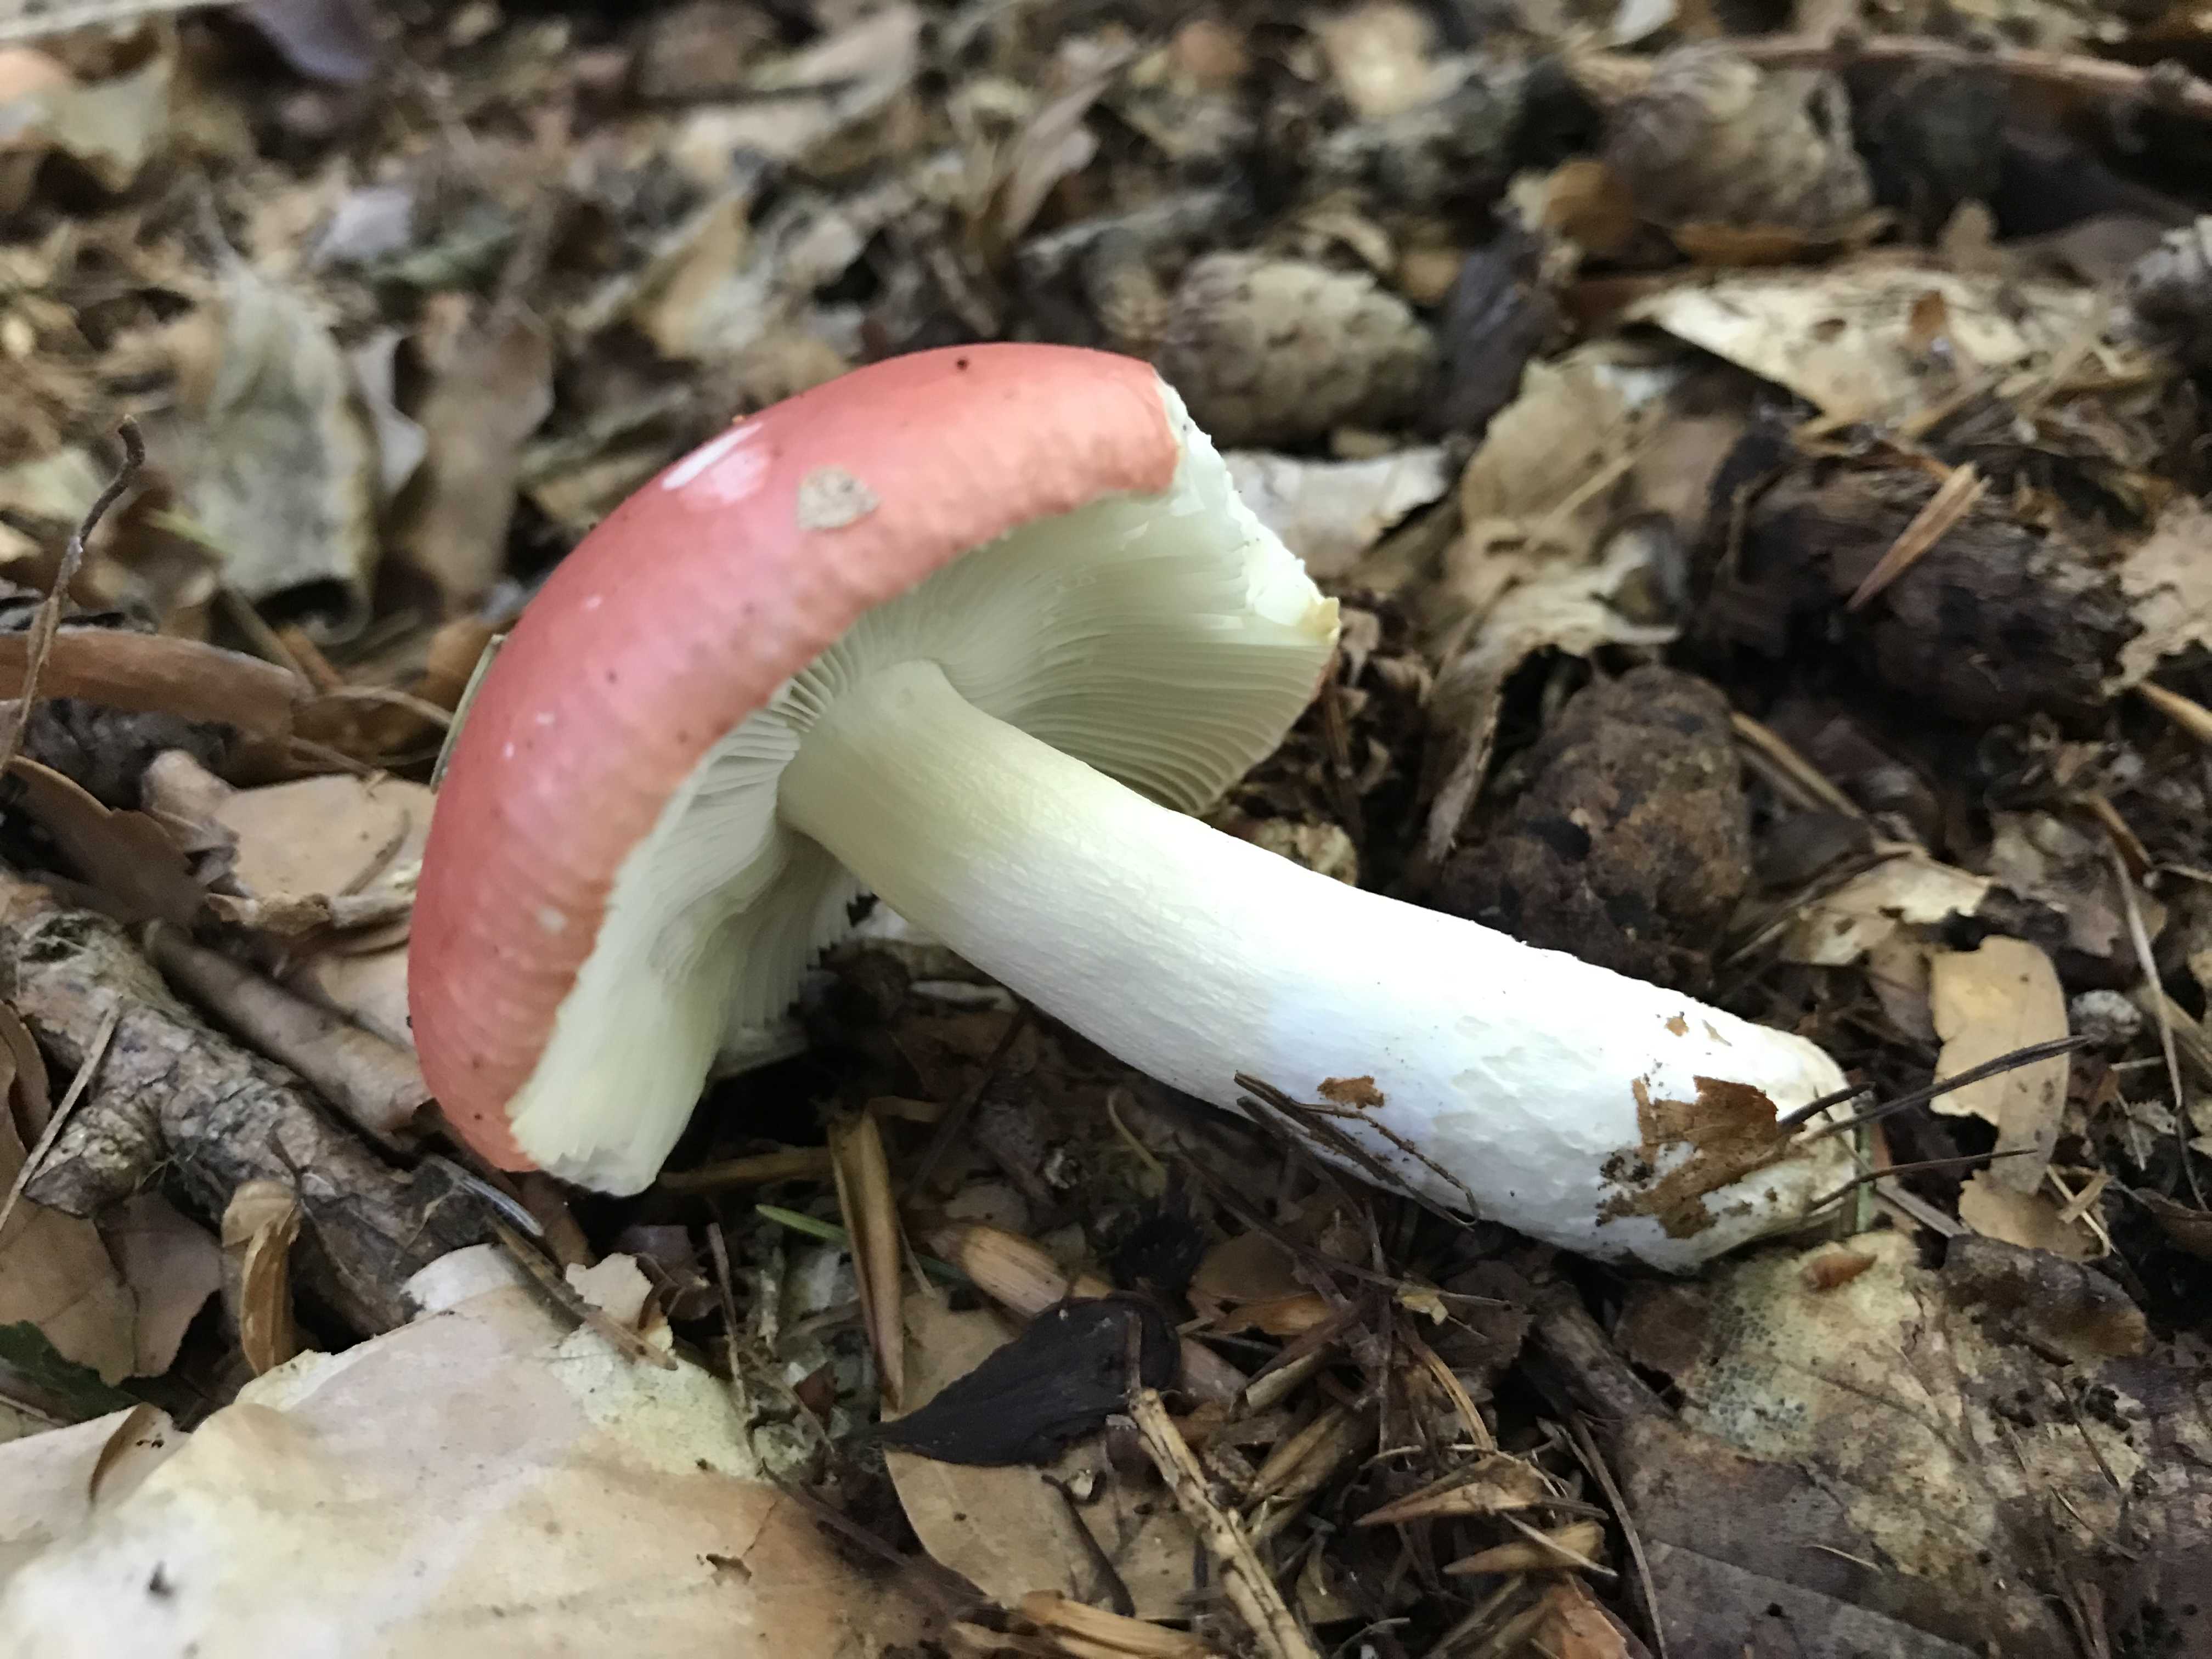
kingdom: Fungi
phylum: Basidiomycota
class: Agaricomycetes
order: Russulales
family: Russulaceae
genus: Russula
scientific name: Russula nobilis
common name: lille gift-skørhat
